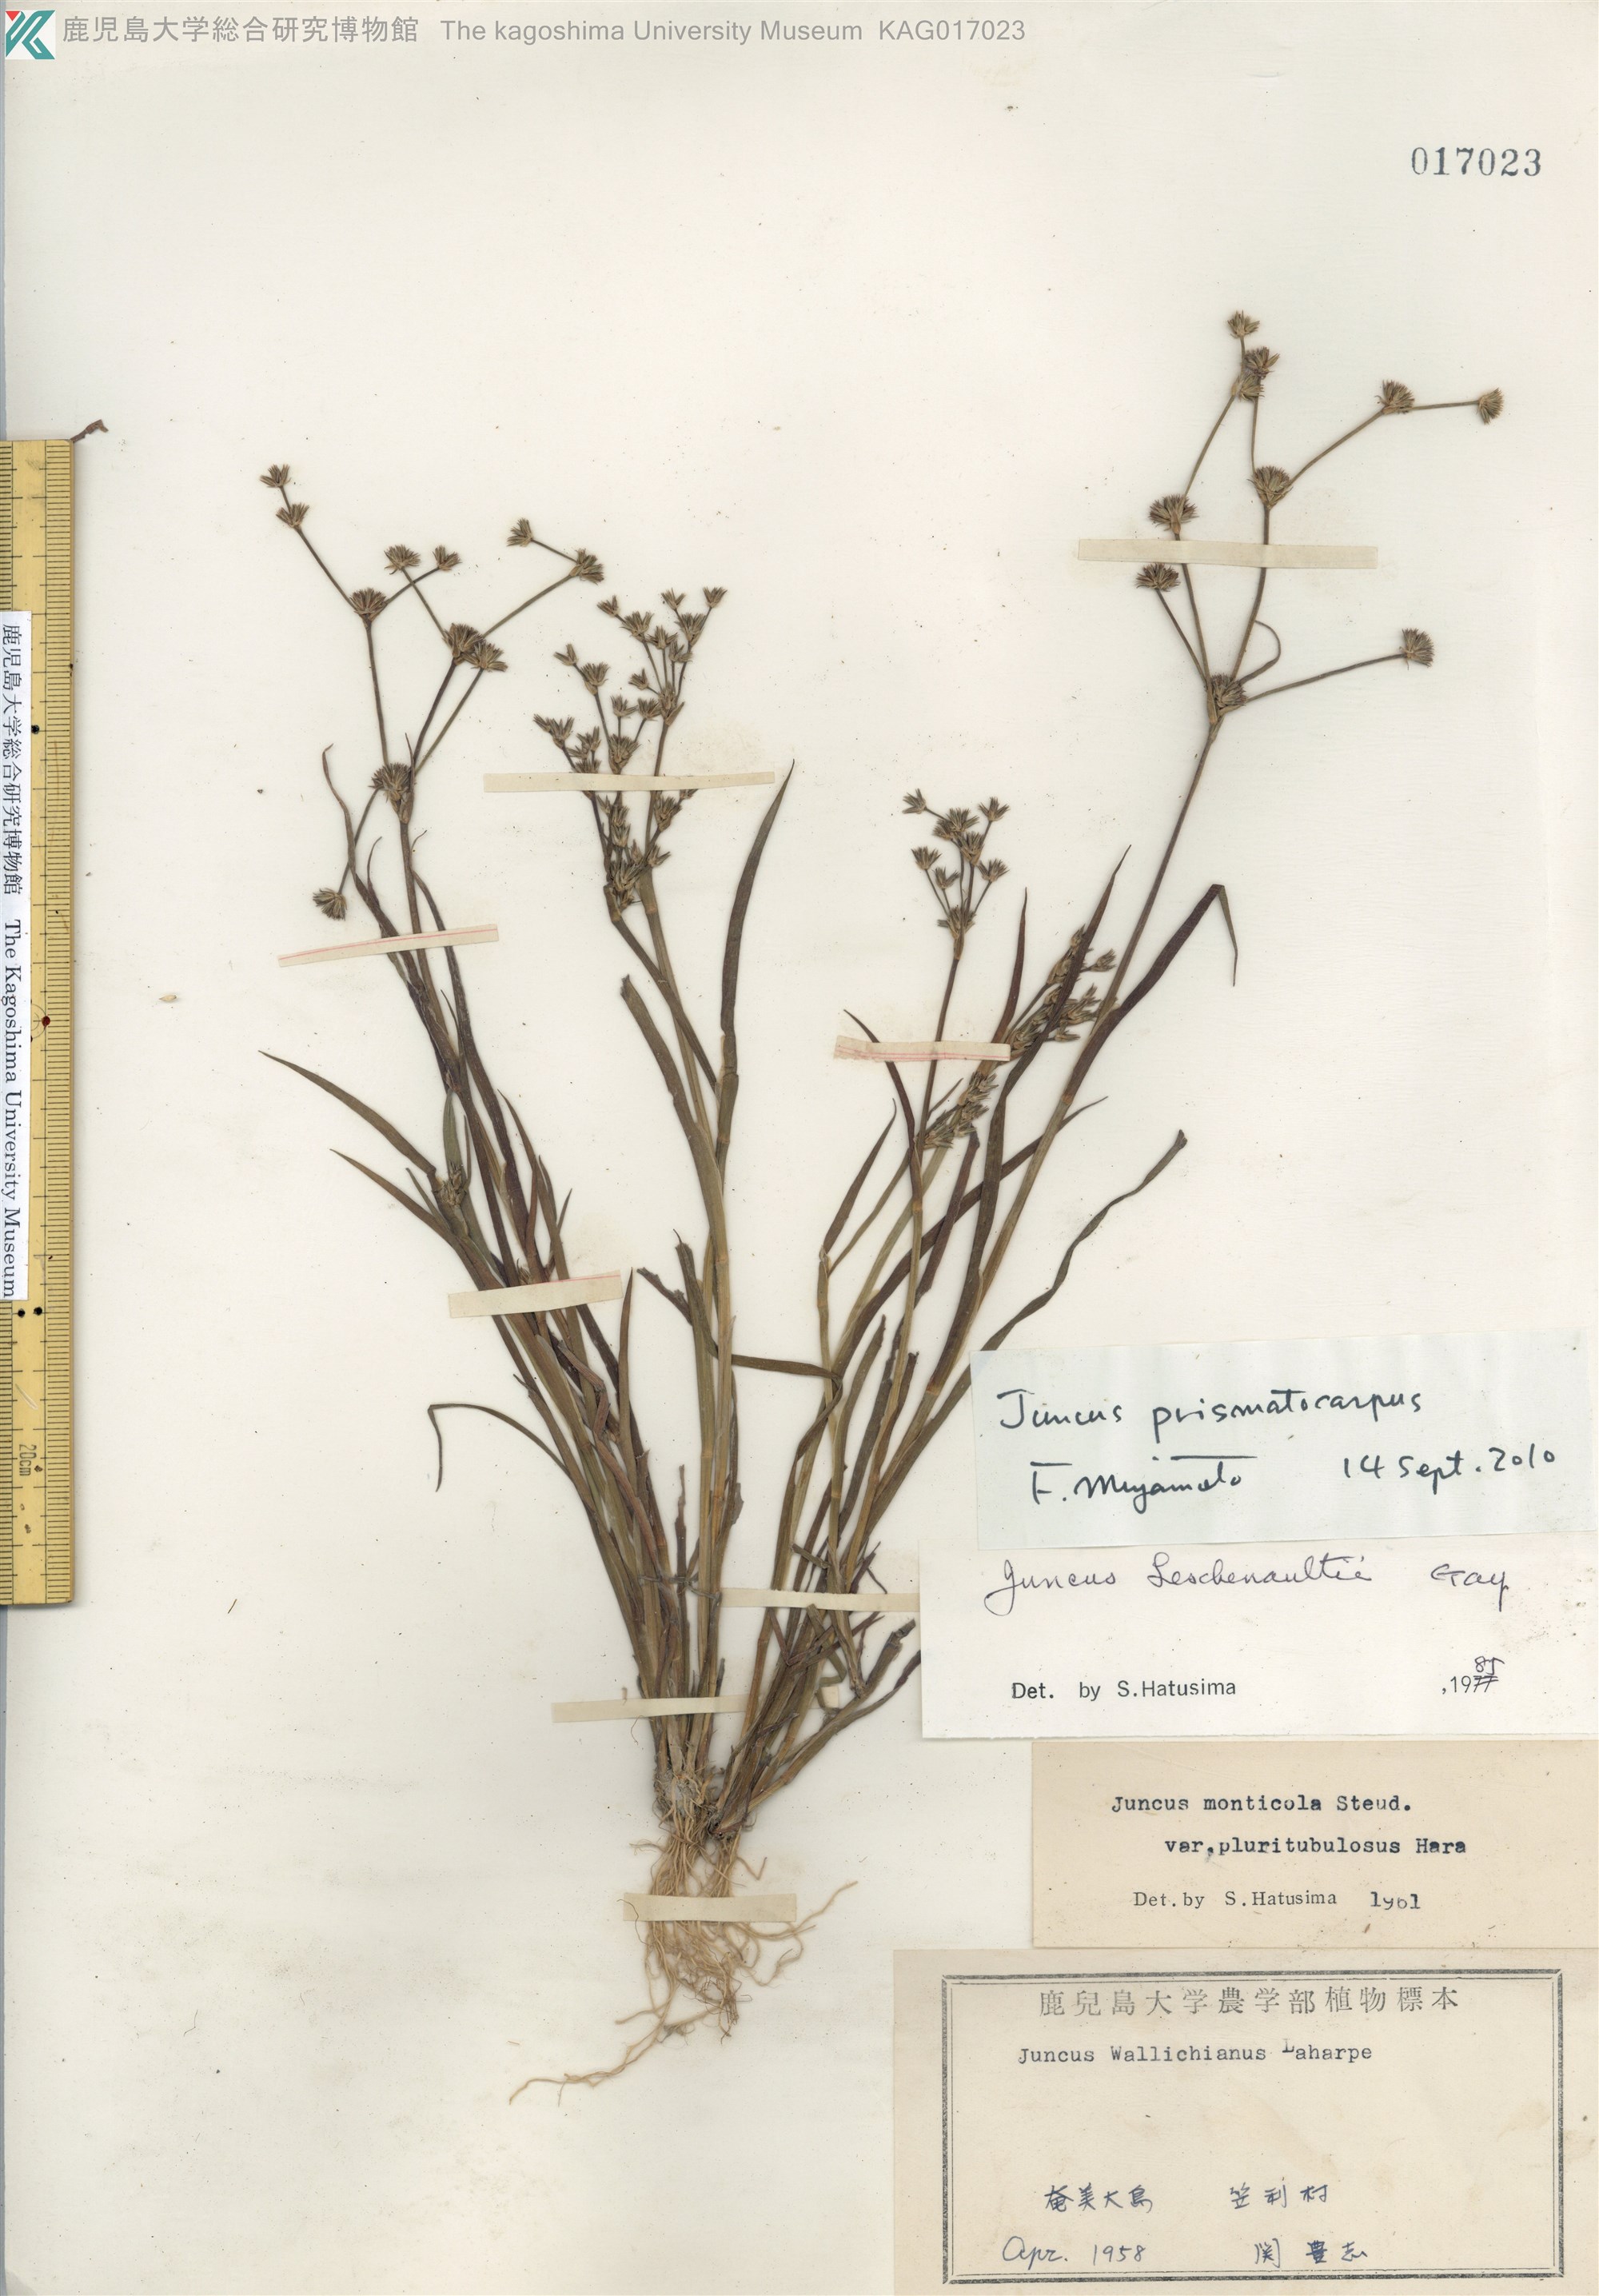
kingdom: Plantae
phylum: Tracheophyta
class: Liliopsida
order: Poales
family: Juncaceae
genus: Juncus
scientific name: Juncus prismatocarpus
